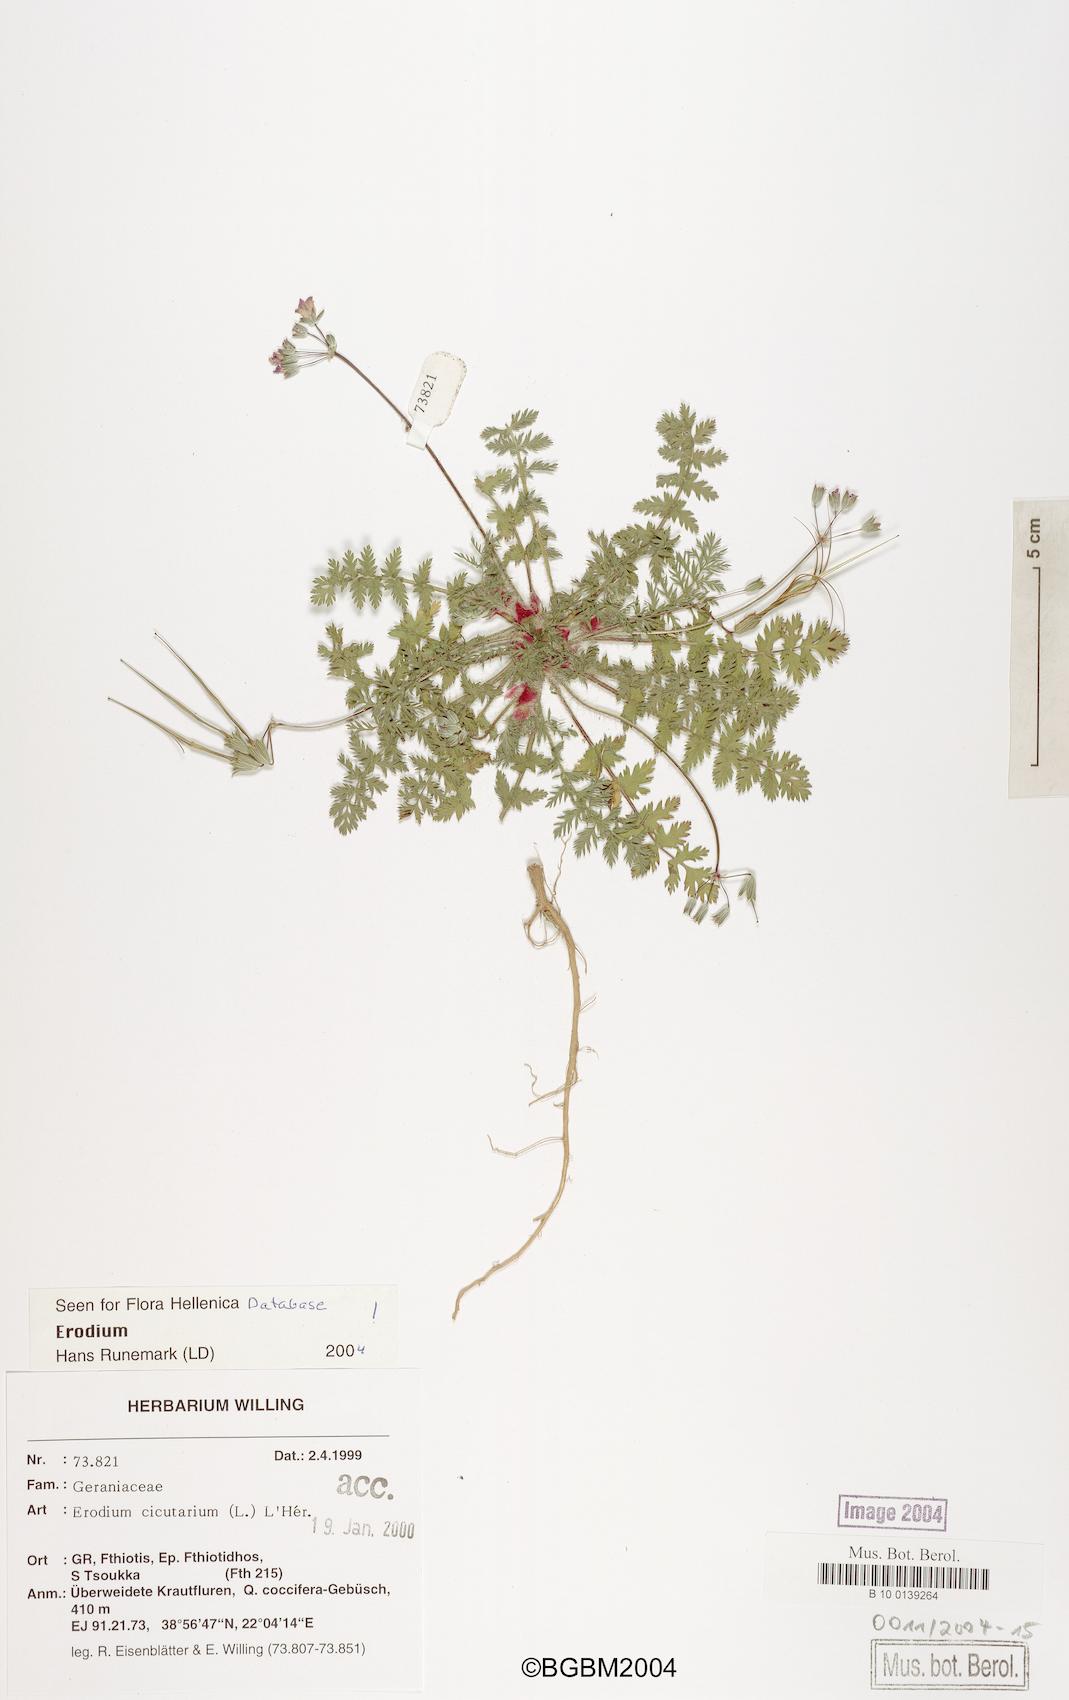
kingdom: Plantae
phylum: Tracheophyta
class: Magnoliopsida
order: Geraniales
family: Geraniaceae
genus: Erodium
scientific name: Erodium cicutarium
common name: Common stork's-bill
